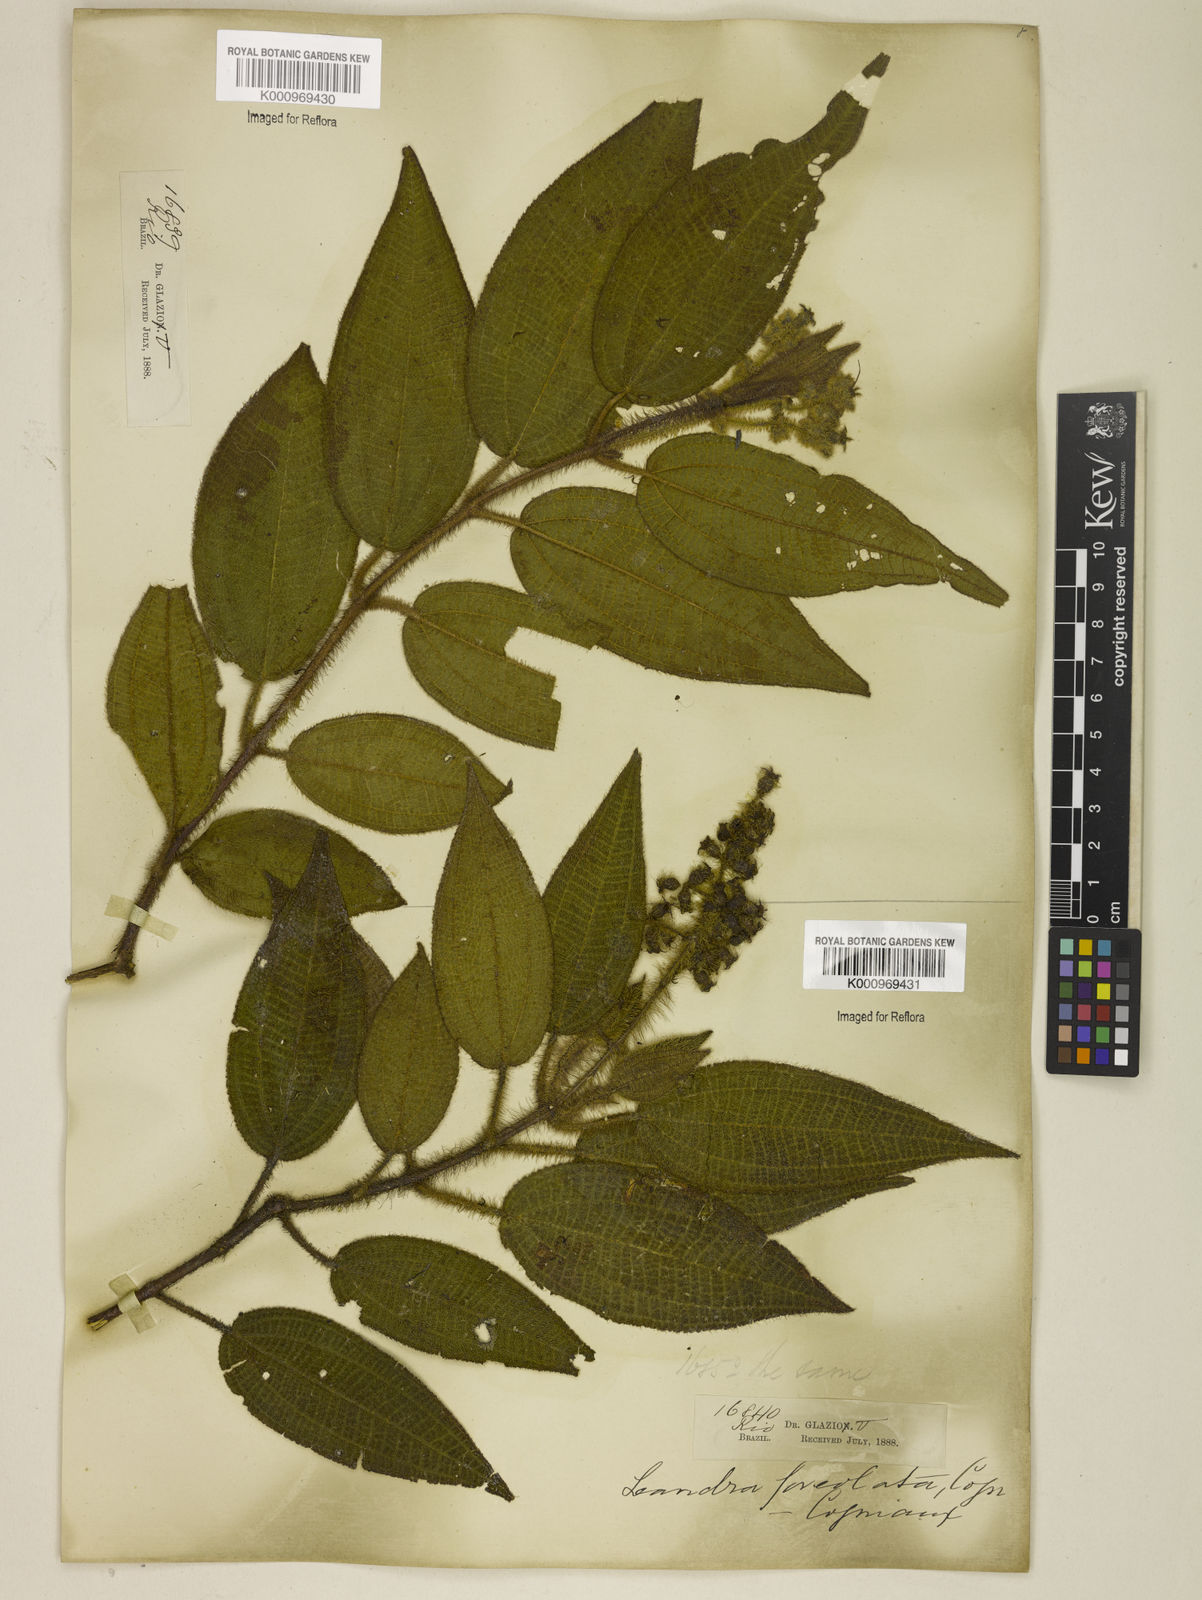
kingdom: Plantae
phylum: Tracheophyta
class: Magnoliopsida
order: Myrtales
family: Melastomataceae
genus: Miconia
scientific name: Miconia leafoveolata
